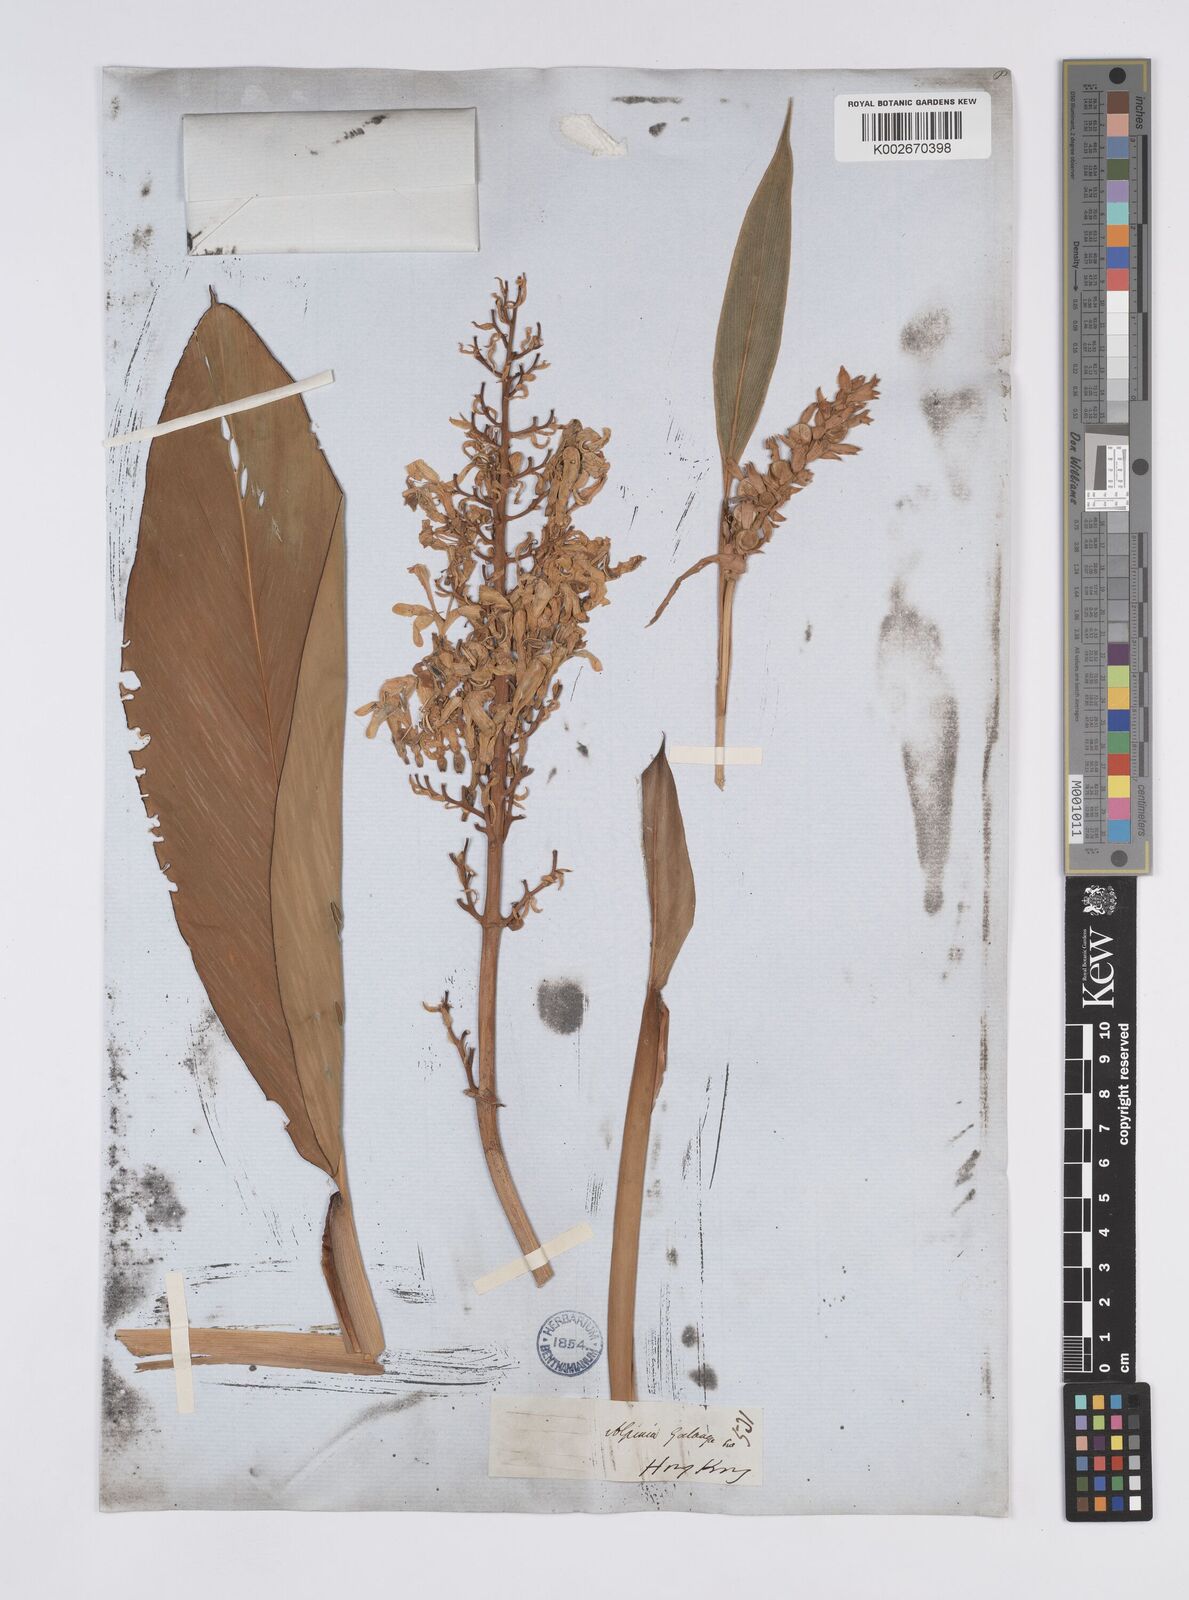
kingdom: Plantae
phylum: Tracheophyta
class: Liliopsida
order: Zingiberales
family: Zingiberaceae
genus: Alpinia
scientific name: Alpinia galanga
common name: Siamese-ginger
